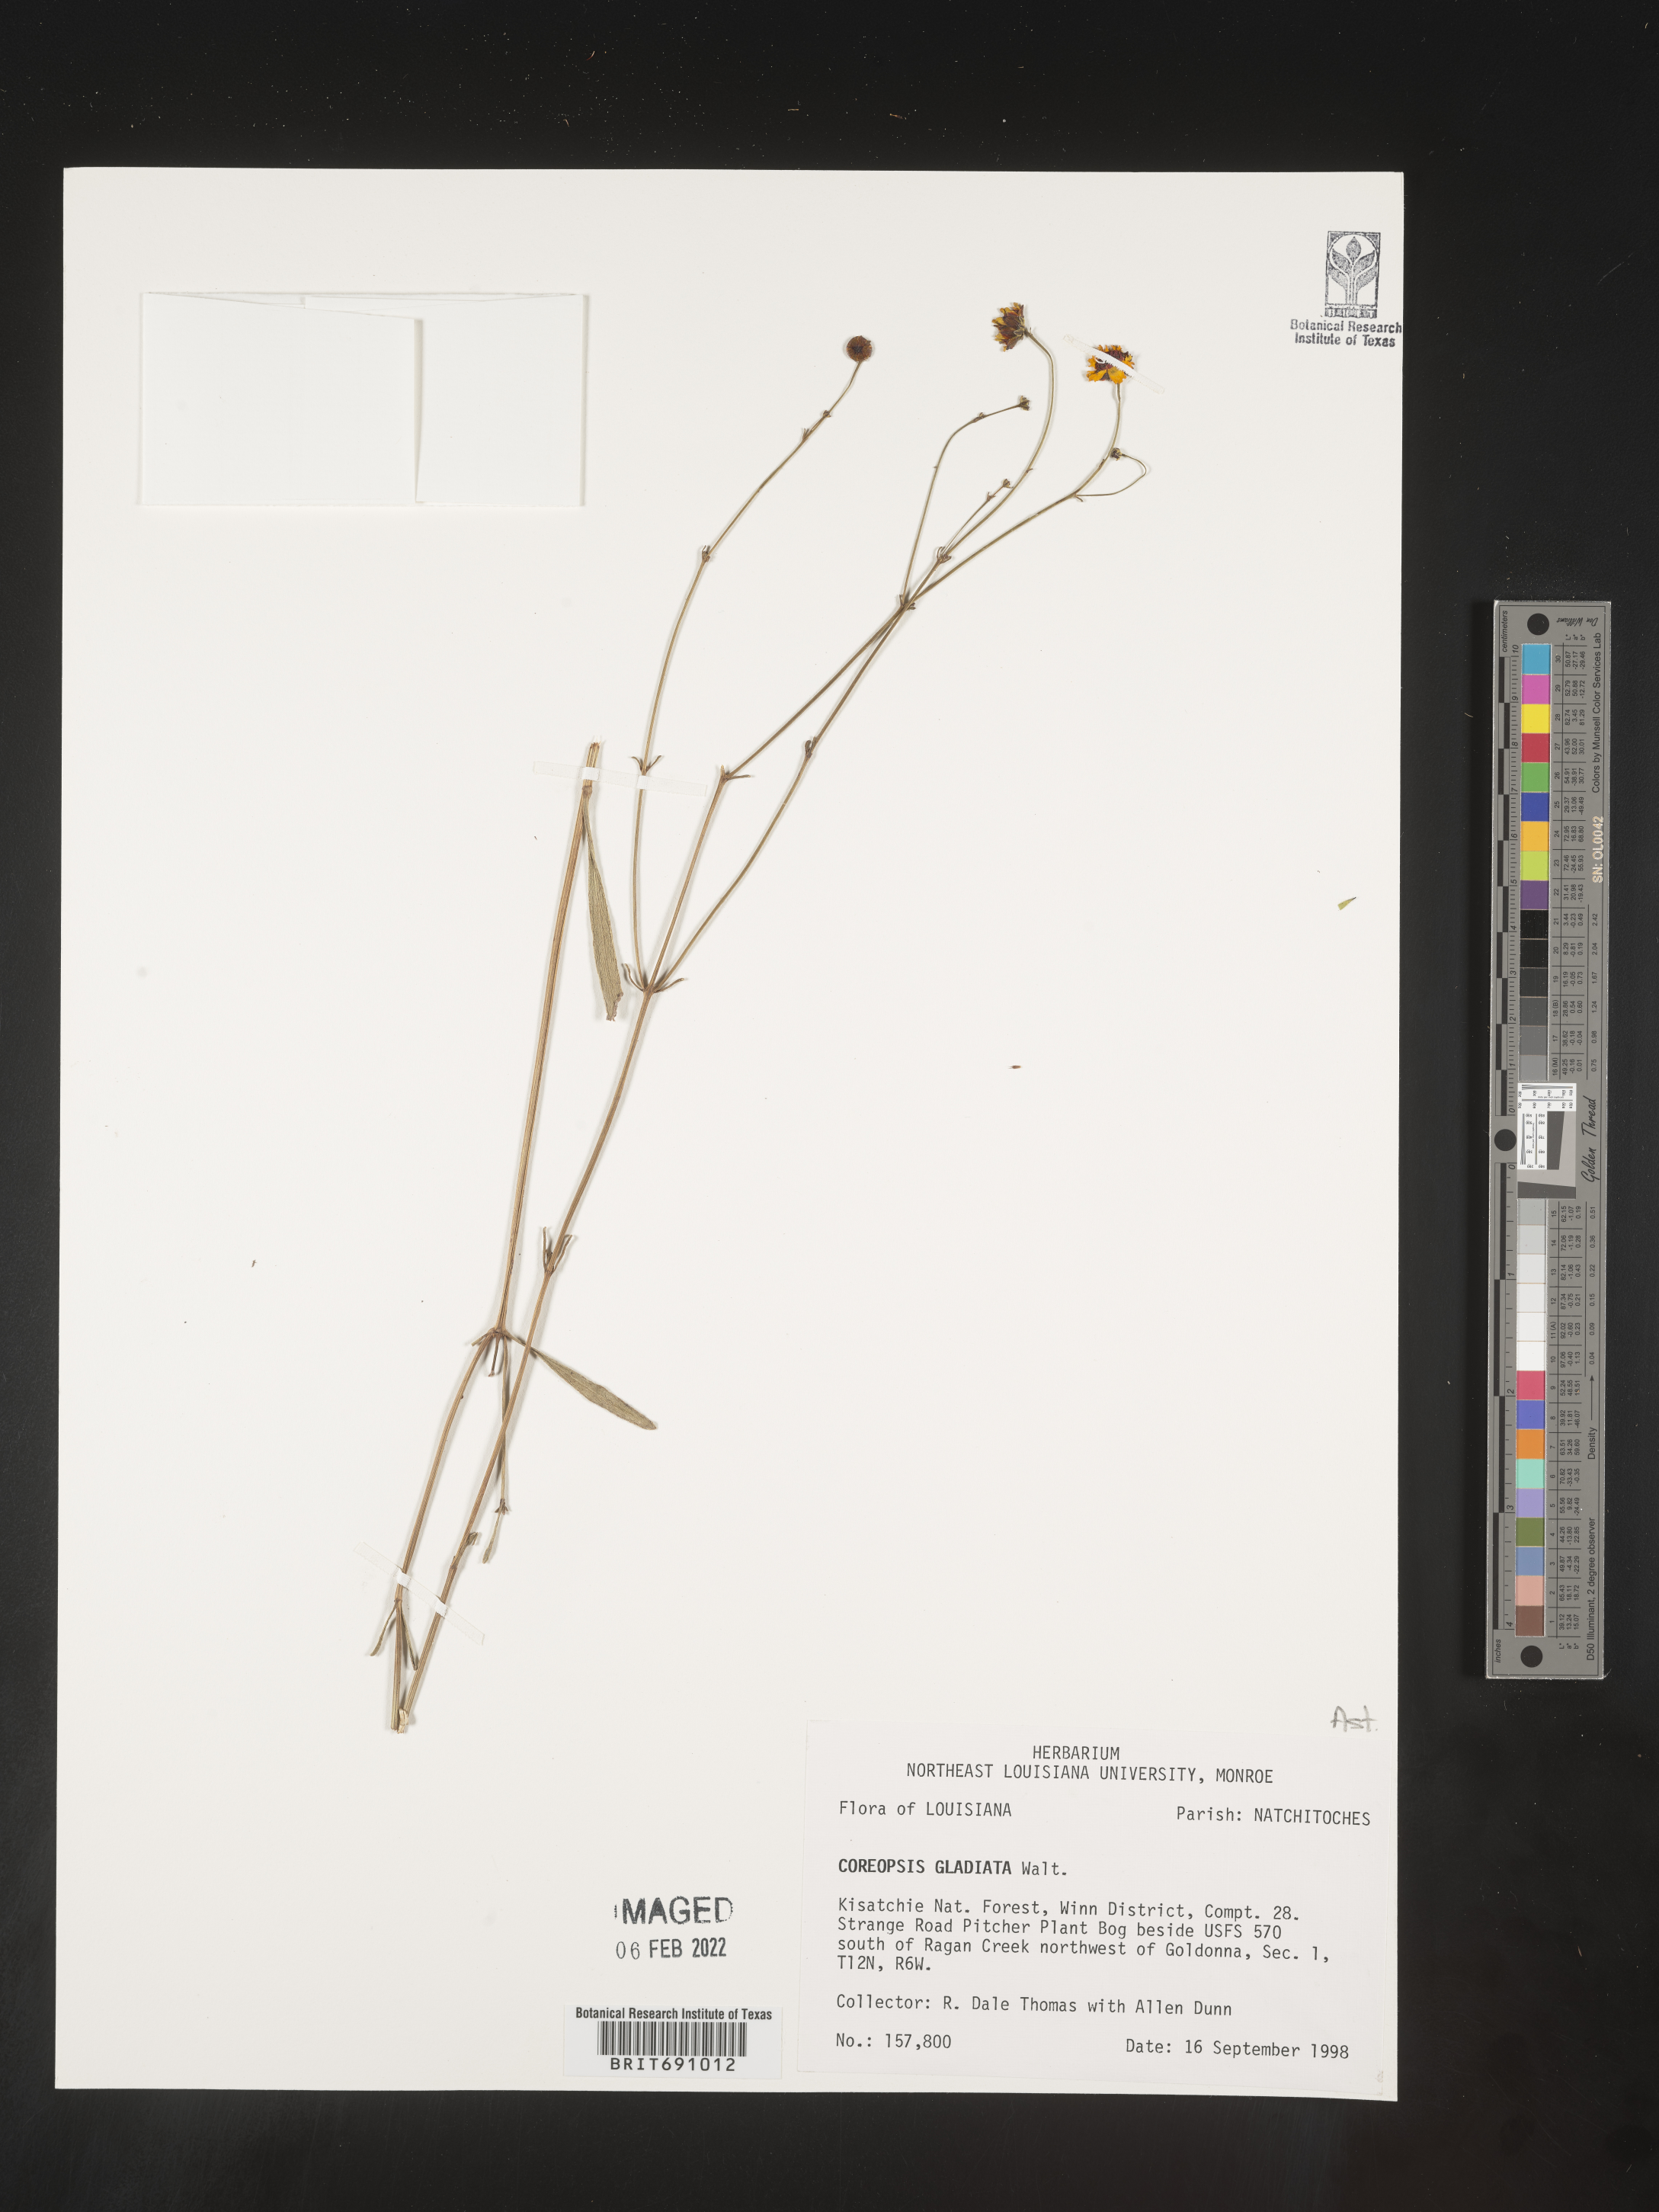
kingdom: Plantae
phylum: Tracheophyta
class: Magnoliopsida
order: Asterales
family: Asteraceae
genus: Coreopsis
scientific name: Coreopsis gladiata
